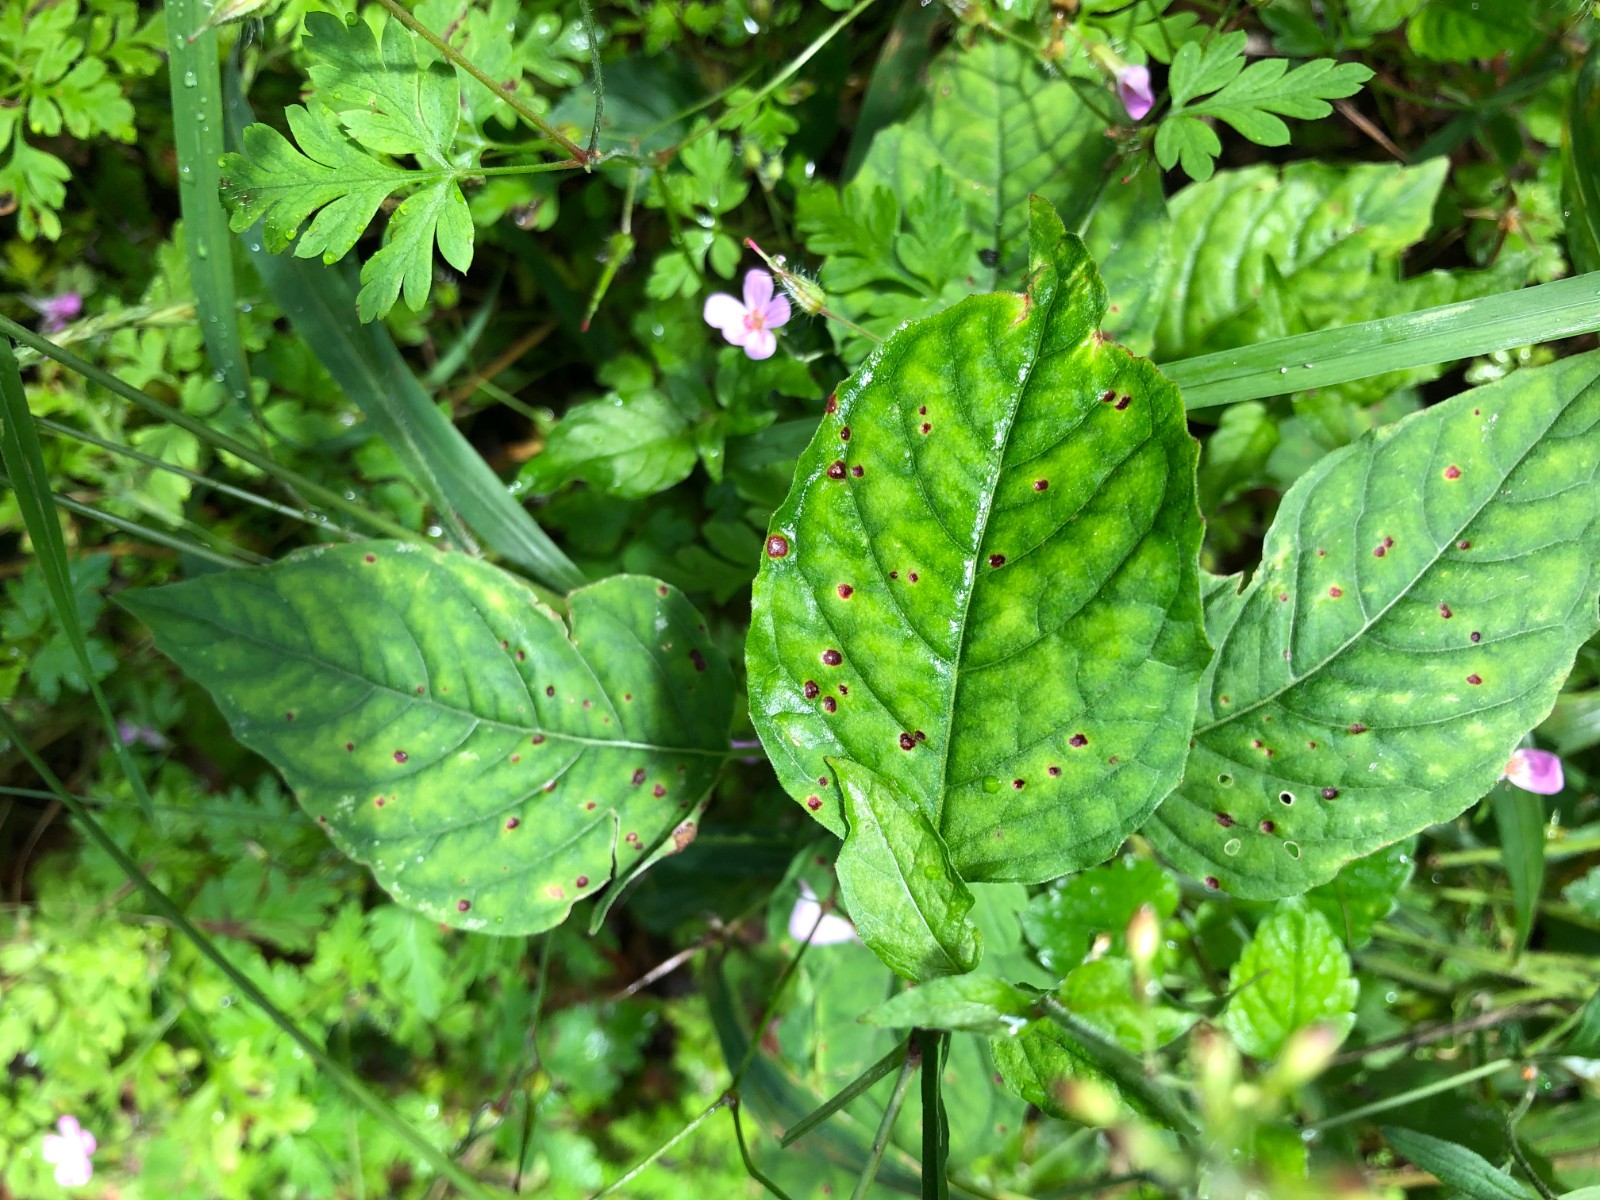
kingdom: Fungi
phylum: Basidiomycota
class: Pucciniomycetes
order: Pucciniales
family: Pucciniaceae
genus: Puccinia
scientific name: Puccinia circaeae
